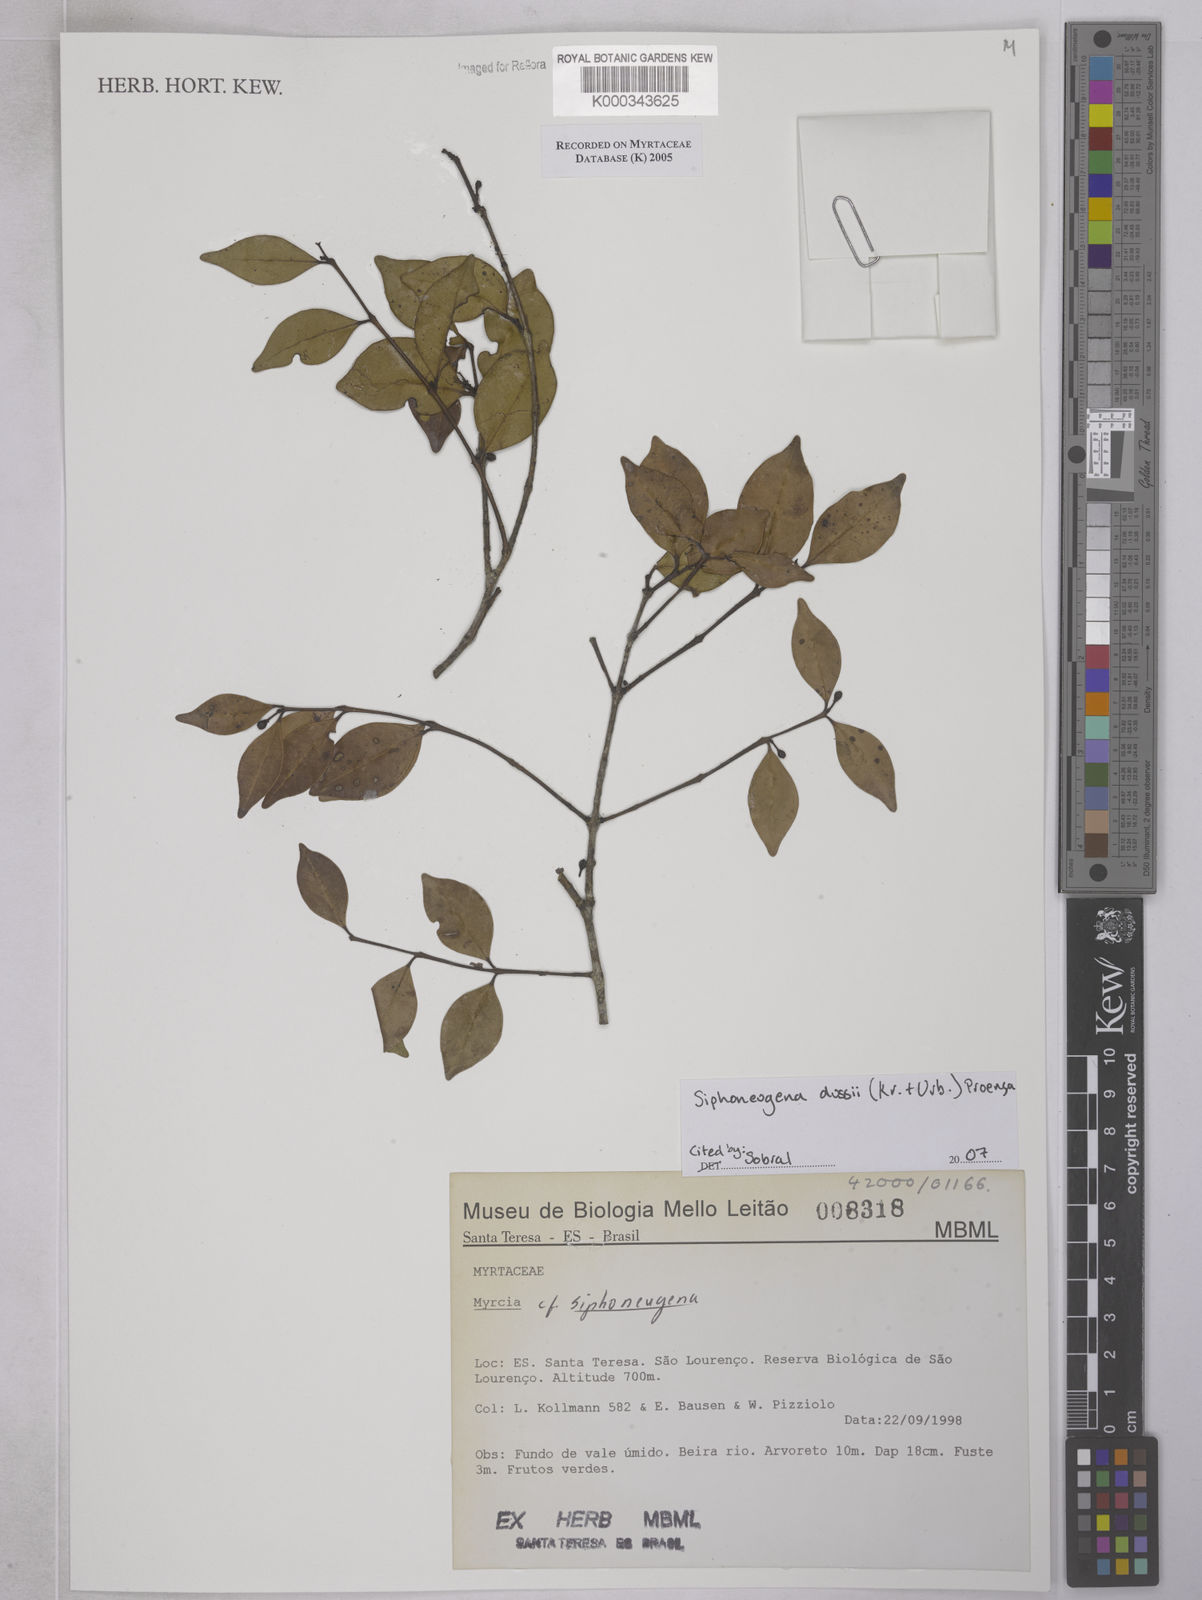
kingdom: Plantae
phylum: Tracheophyta
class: Magnoliopsida
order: Myrtales
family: Myrtaceae
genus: Siphoneugena
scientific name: Siphoneugena
